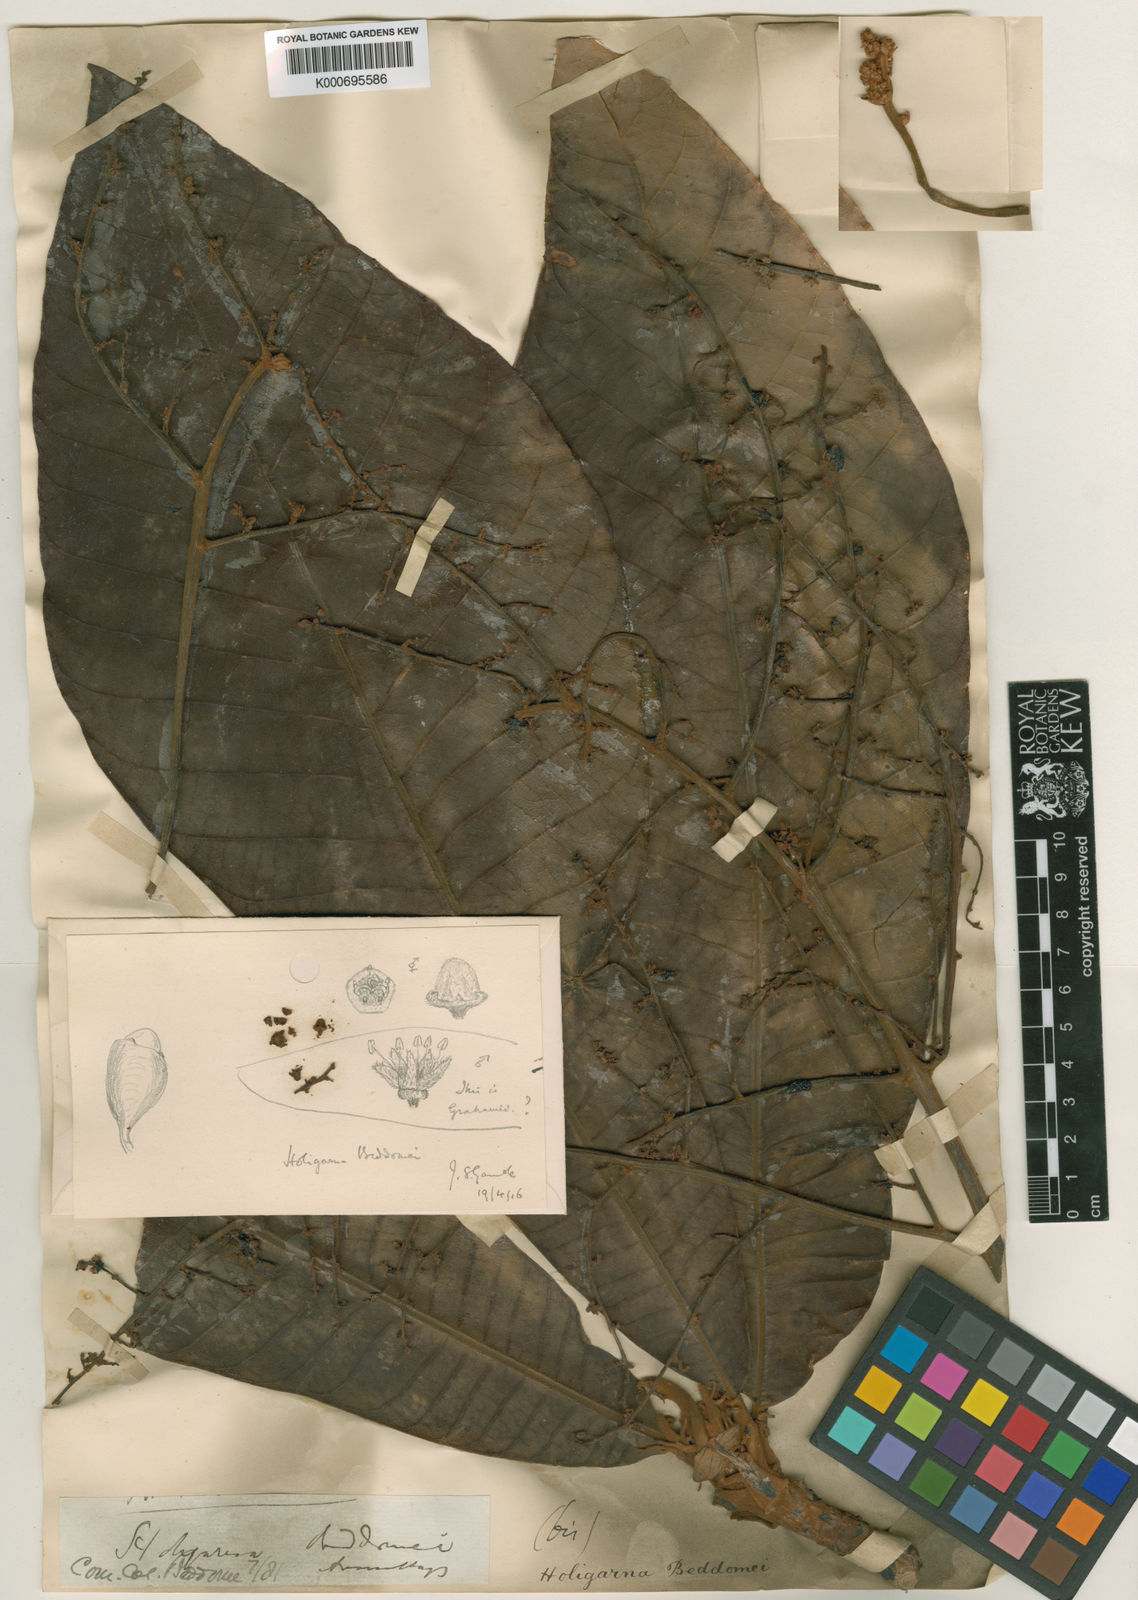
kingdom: Plantae
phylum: Tracheophyta
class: Magnoliopsida
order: Sapindales
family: Anacardiaceae
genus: Holigarna
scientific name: Holigarna beddomei
